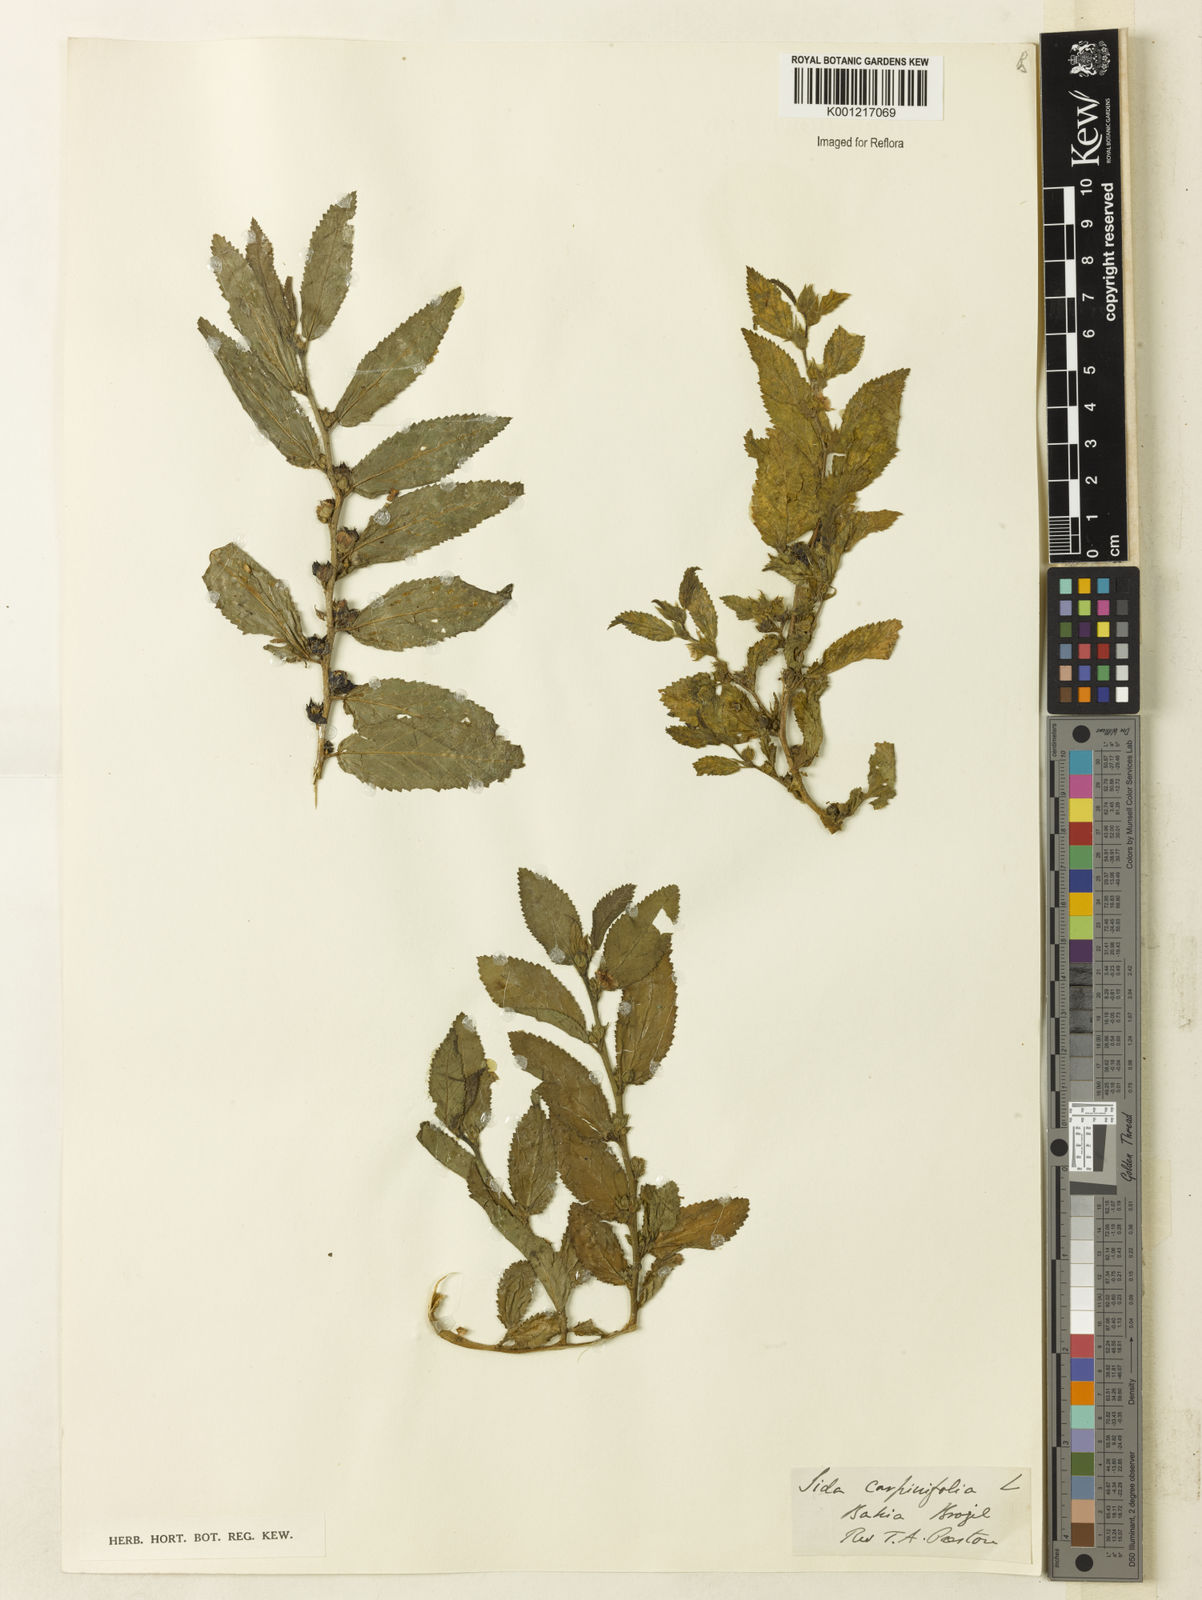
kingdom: Plantae
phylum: Tracheophyta
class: Magnoliopsida
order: Malvales
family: Malvaceae
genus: Sida
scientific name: Sida
